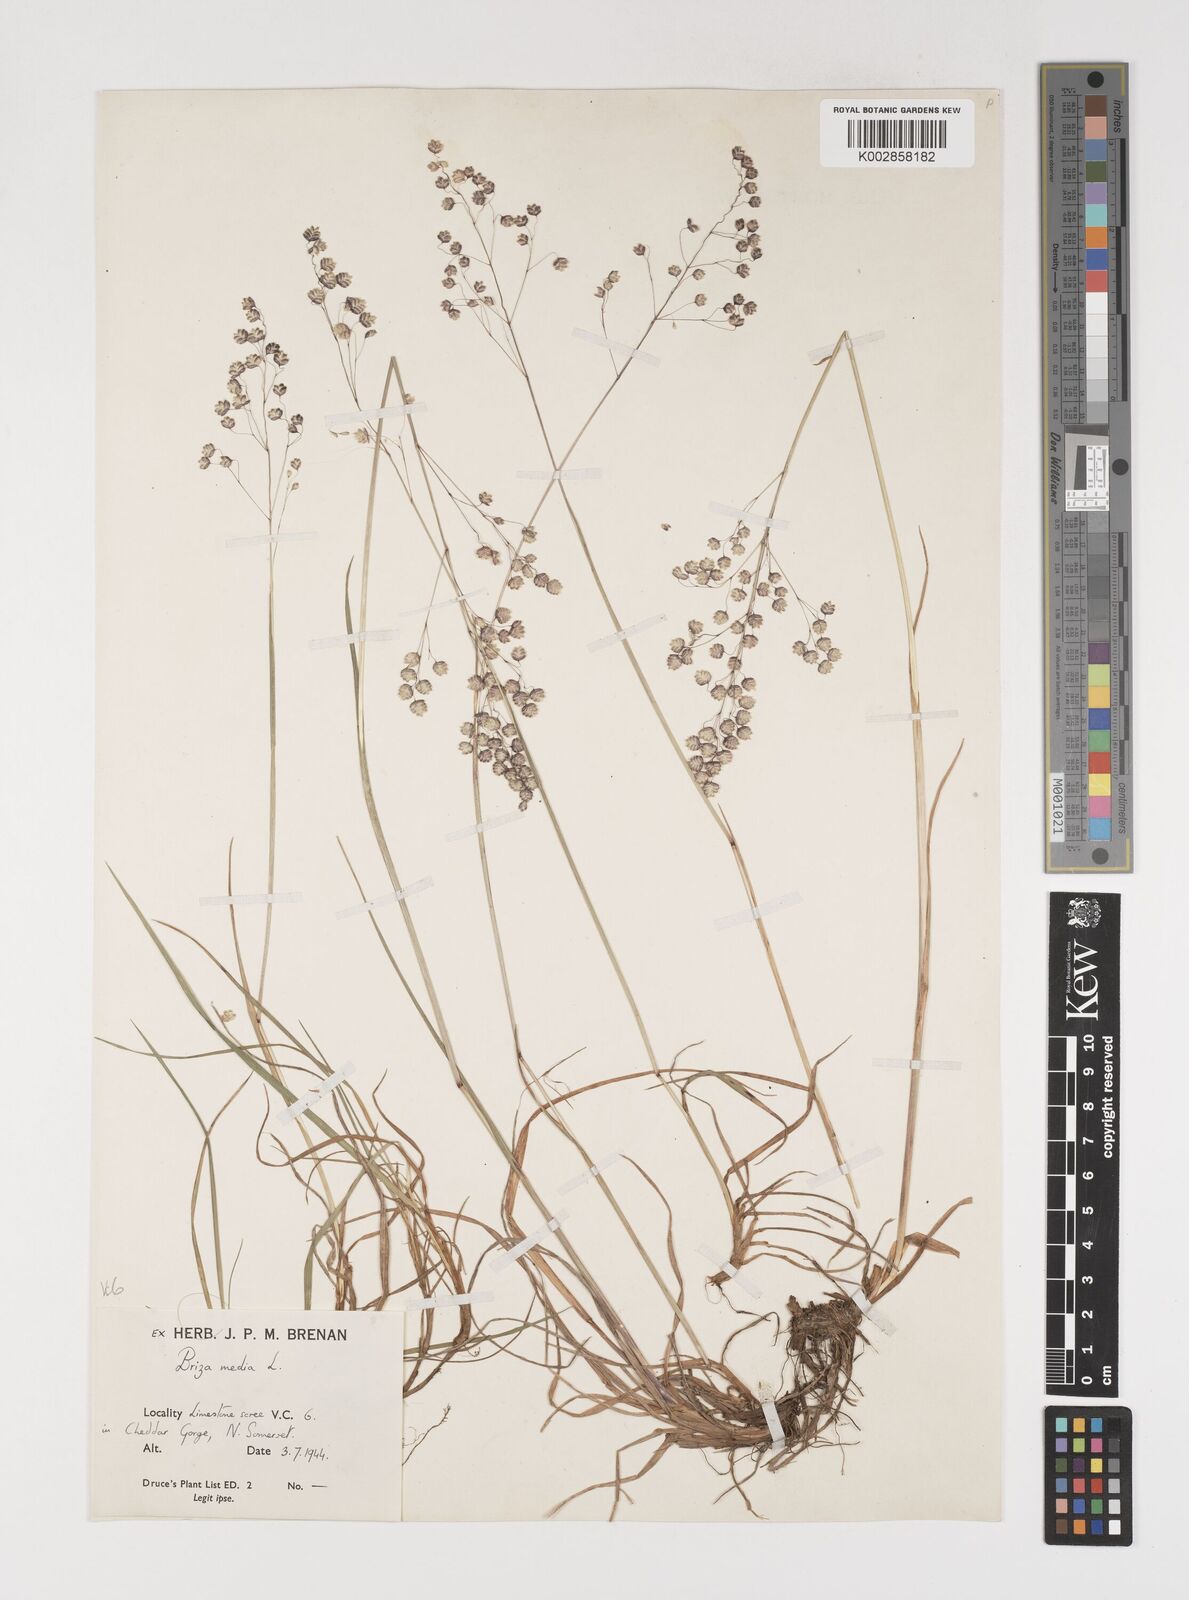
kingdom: Plantae
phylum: Tracheophyta
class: Liliopsida
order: Poales
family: Poaceae
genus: Briza
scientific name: Briza media
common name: Quaking grass
